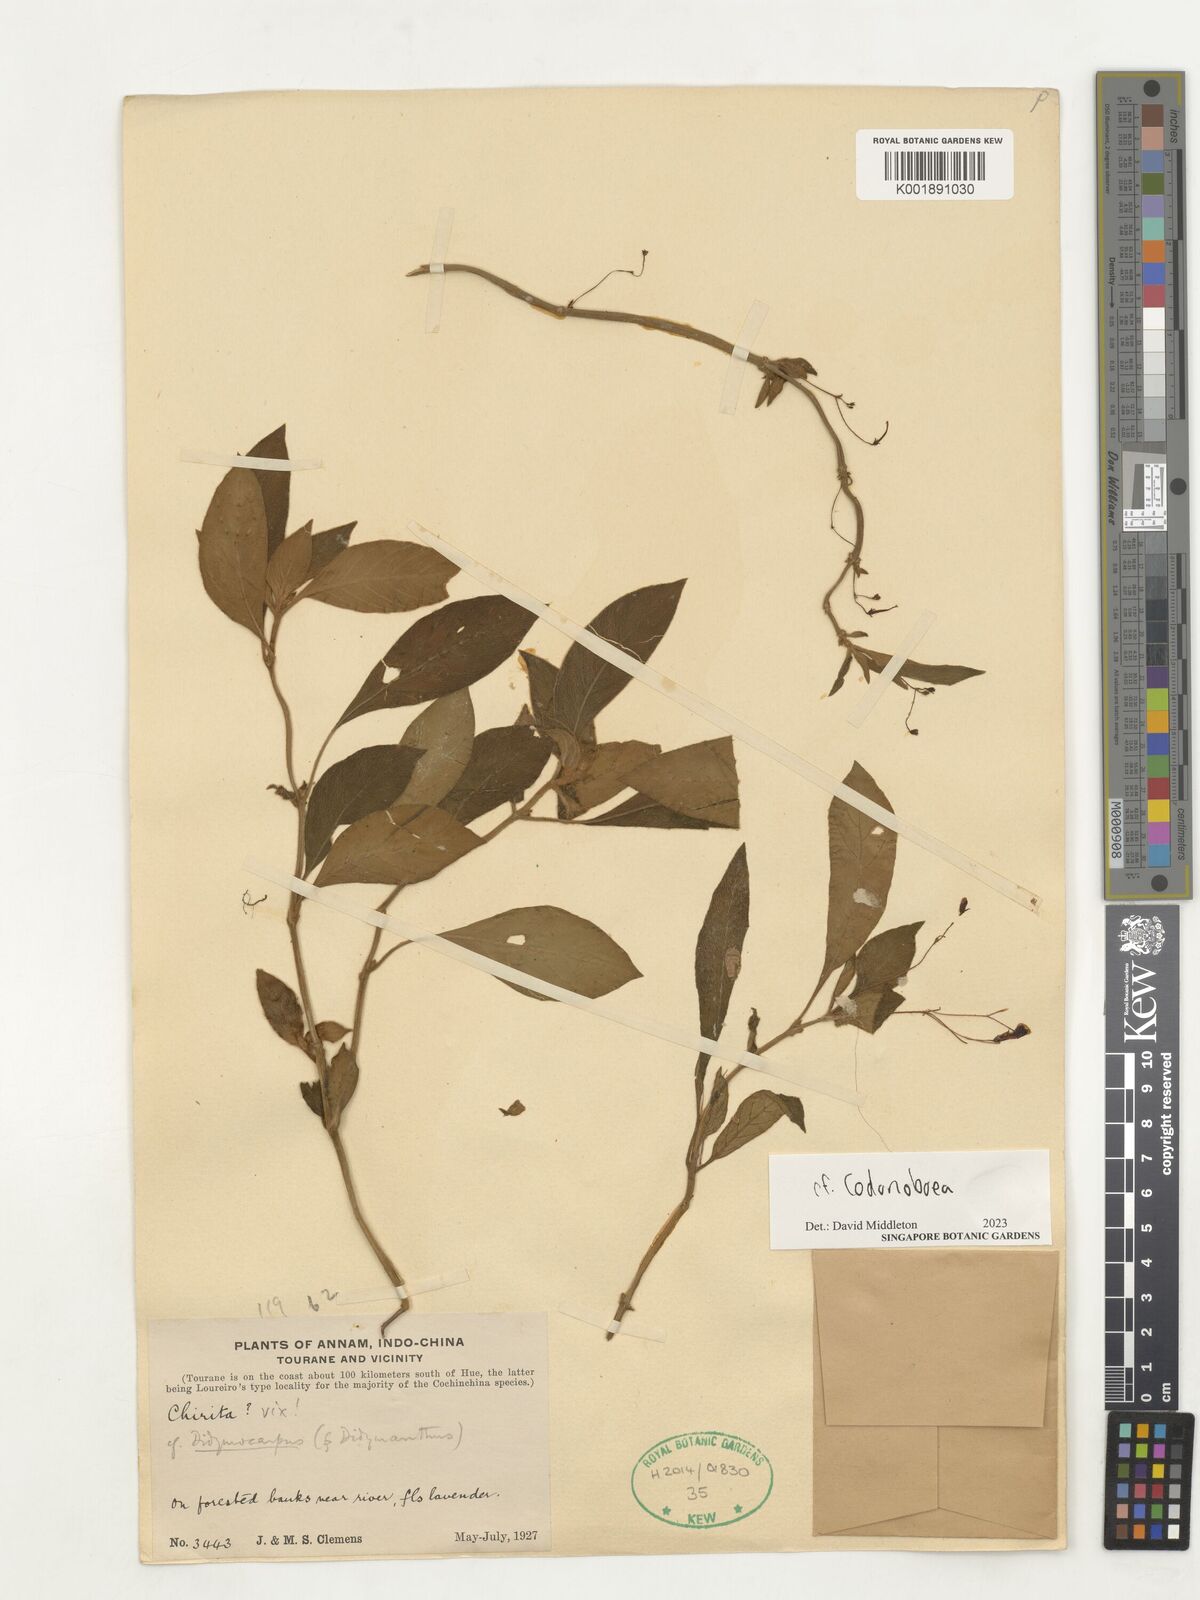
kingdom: Plantae
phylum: Tracheophyta
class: Magnoliopsida
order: Lamiales
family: Gesneriaceae
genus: Codonoboea
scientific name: Codonoboea
